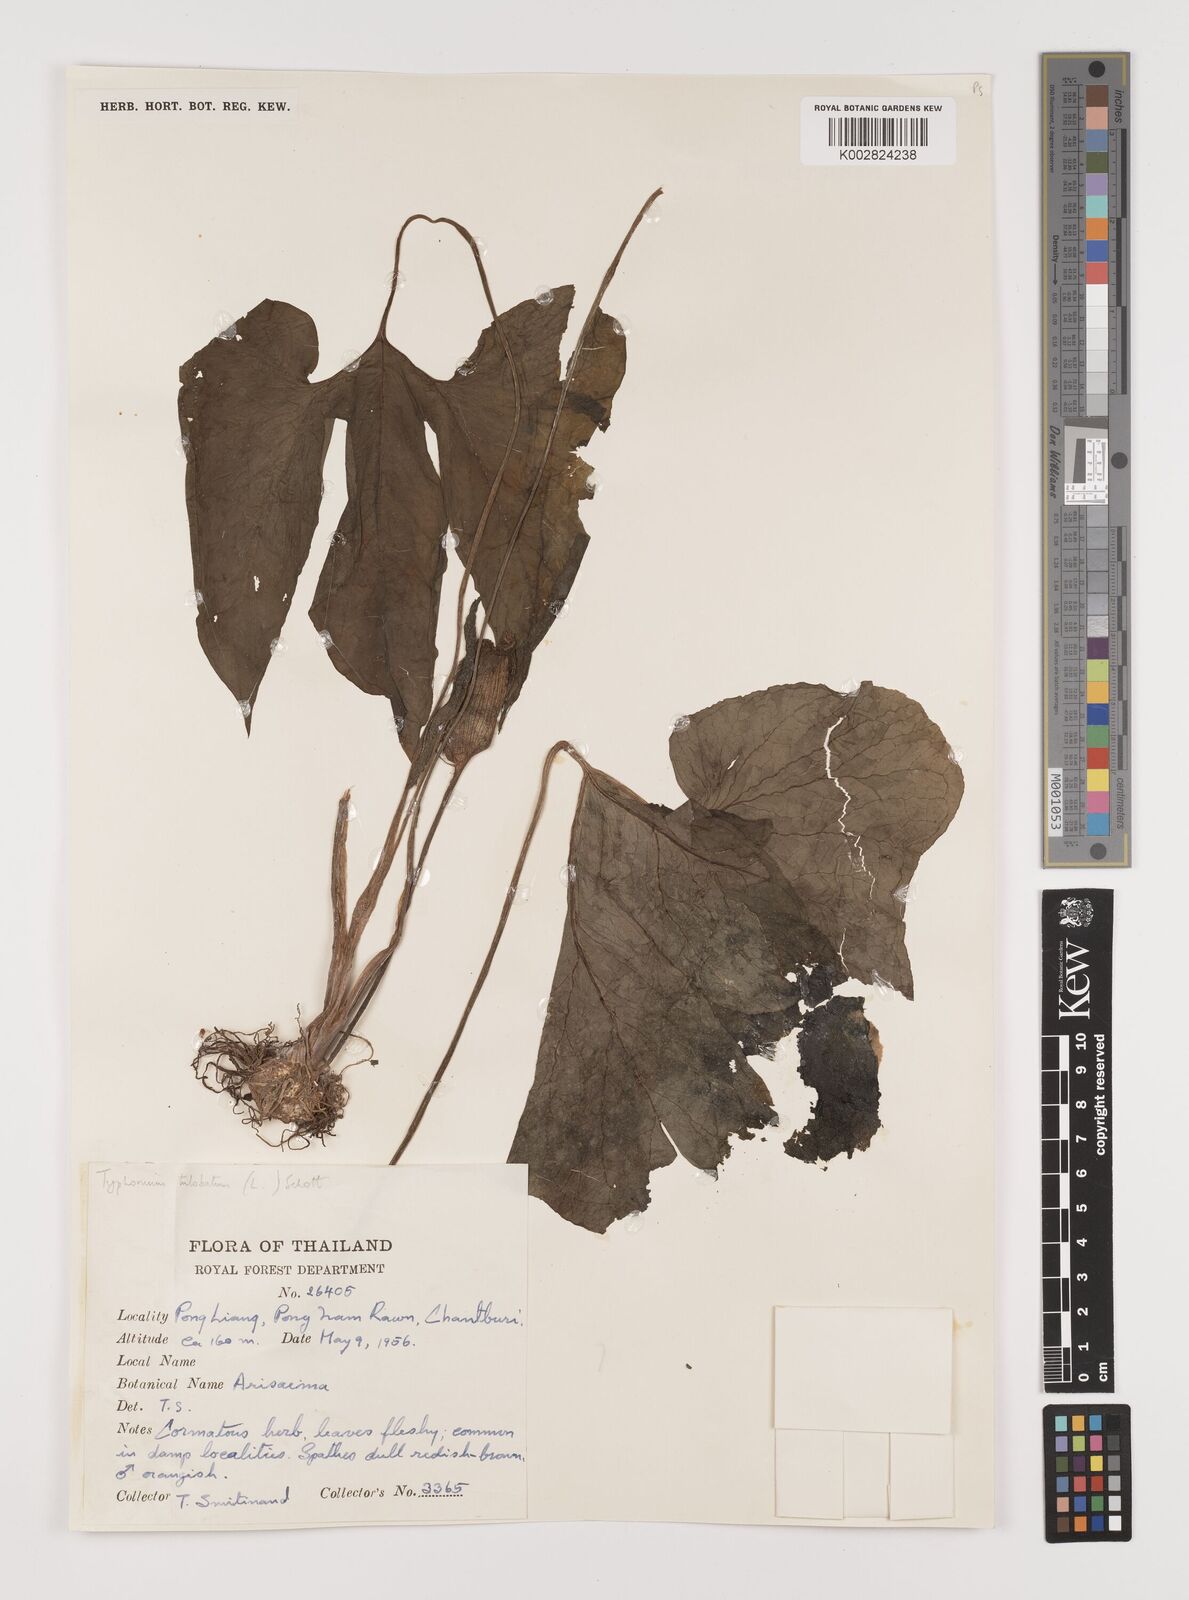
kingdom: Plantae
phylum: Tracheophyta
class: Liliopsida
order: Alismatales
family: Araceae
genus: Typhonium
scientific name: Typhonium trilobatum
